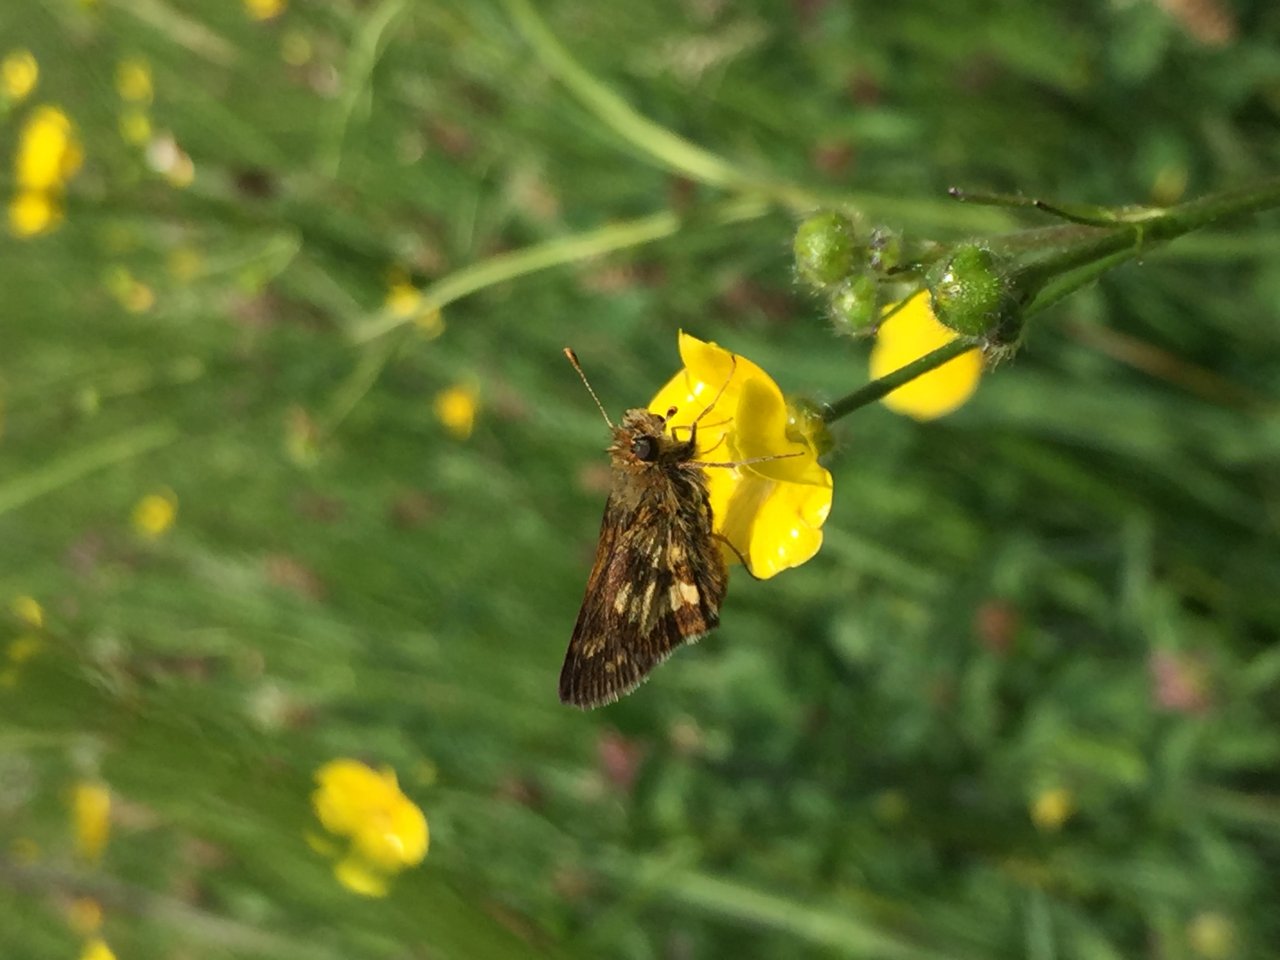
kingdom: Animalia
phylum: Arthropoda
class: Insecta
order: Lepidoptera
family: Hesperiidae
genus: Polites
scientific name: Polites coras
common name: Peck's Skipper
